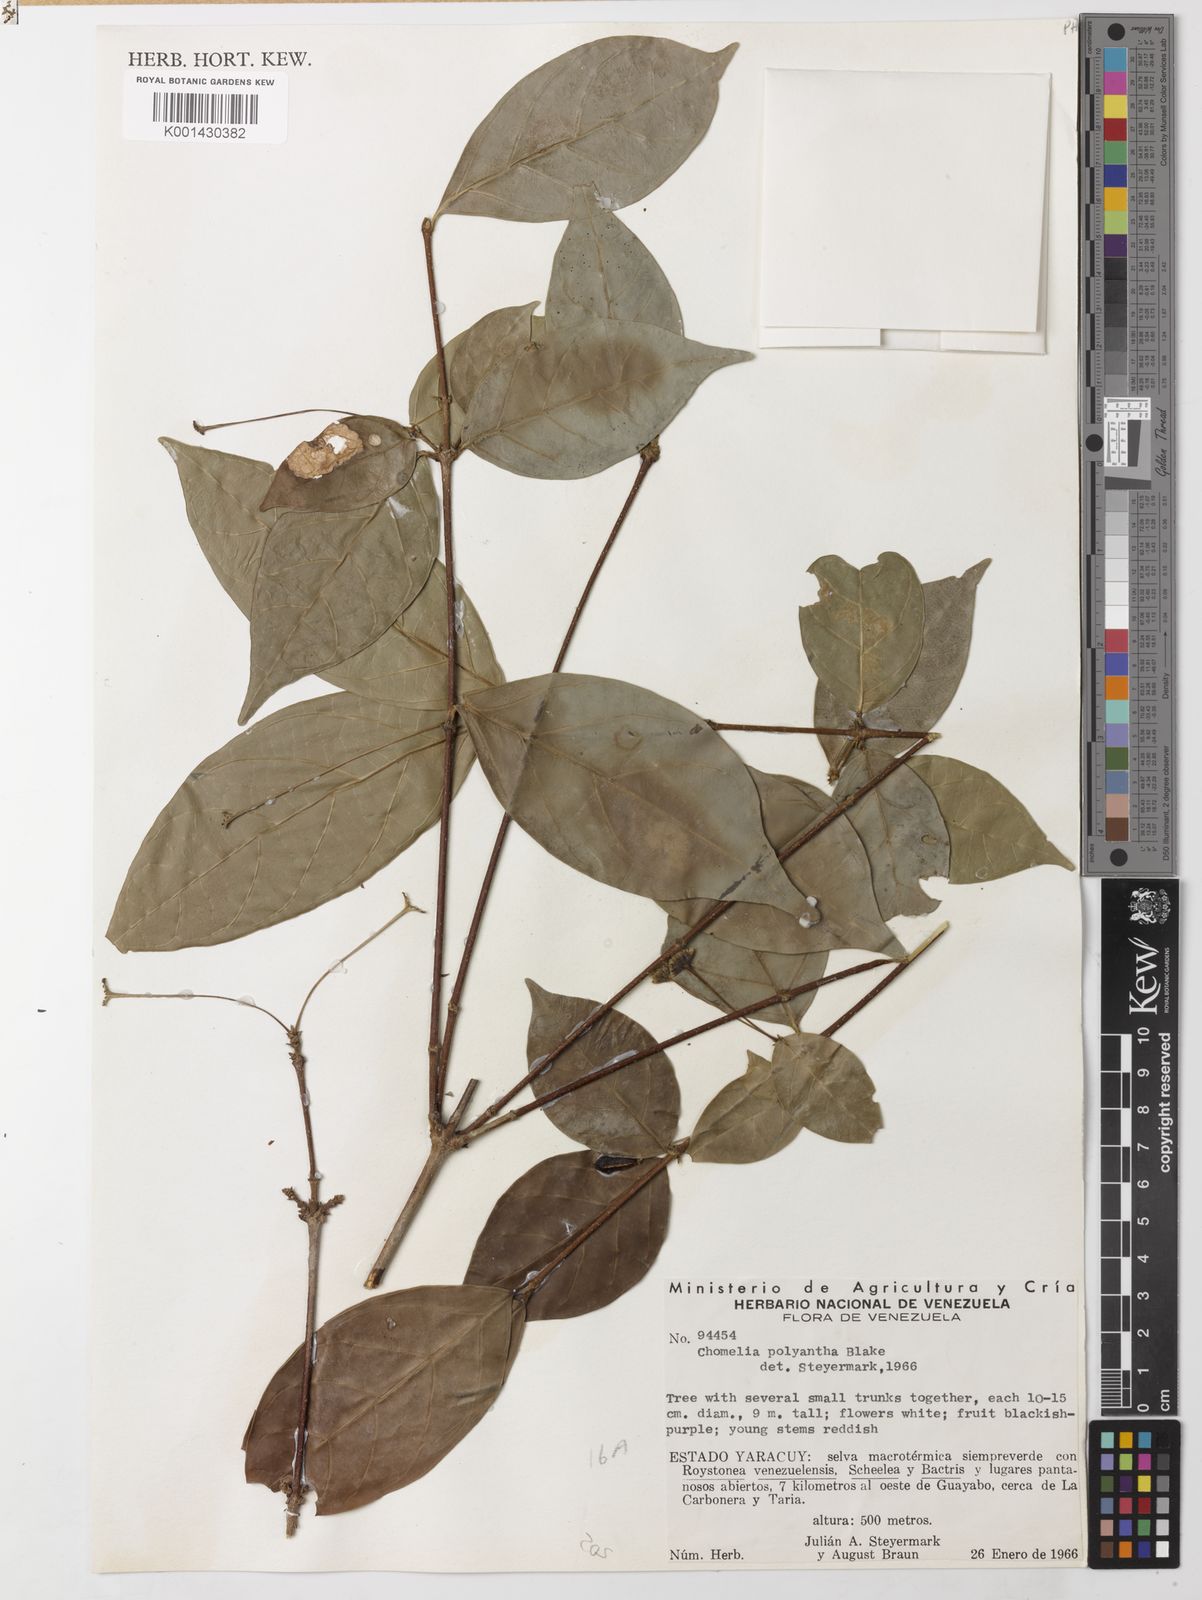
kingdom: Plantae
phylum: Tracheophyta
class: Magnoliopsida
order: Gentianales
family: Rubiaceae
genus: Chomelia
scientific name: Chomelia polyantha
